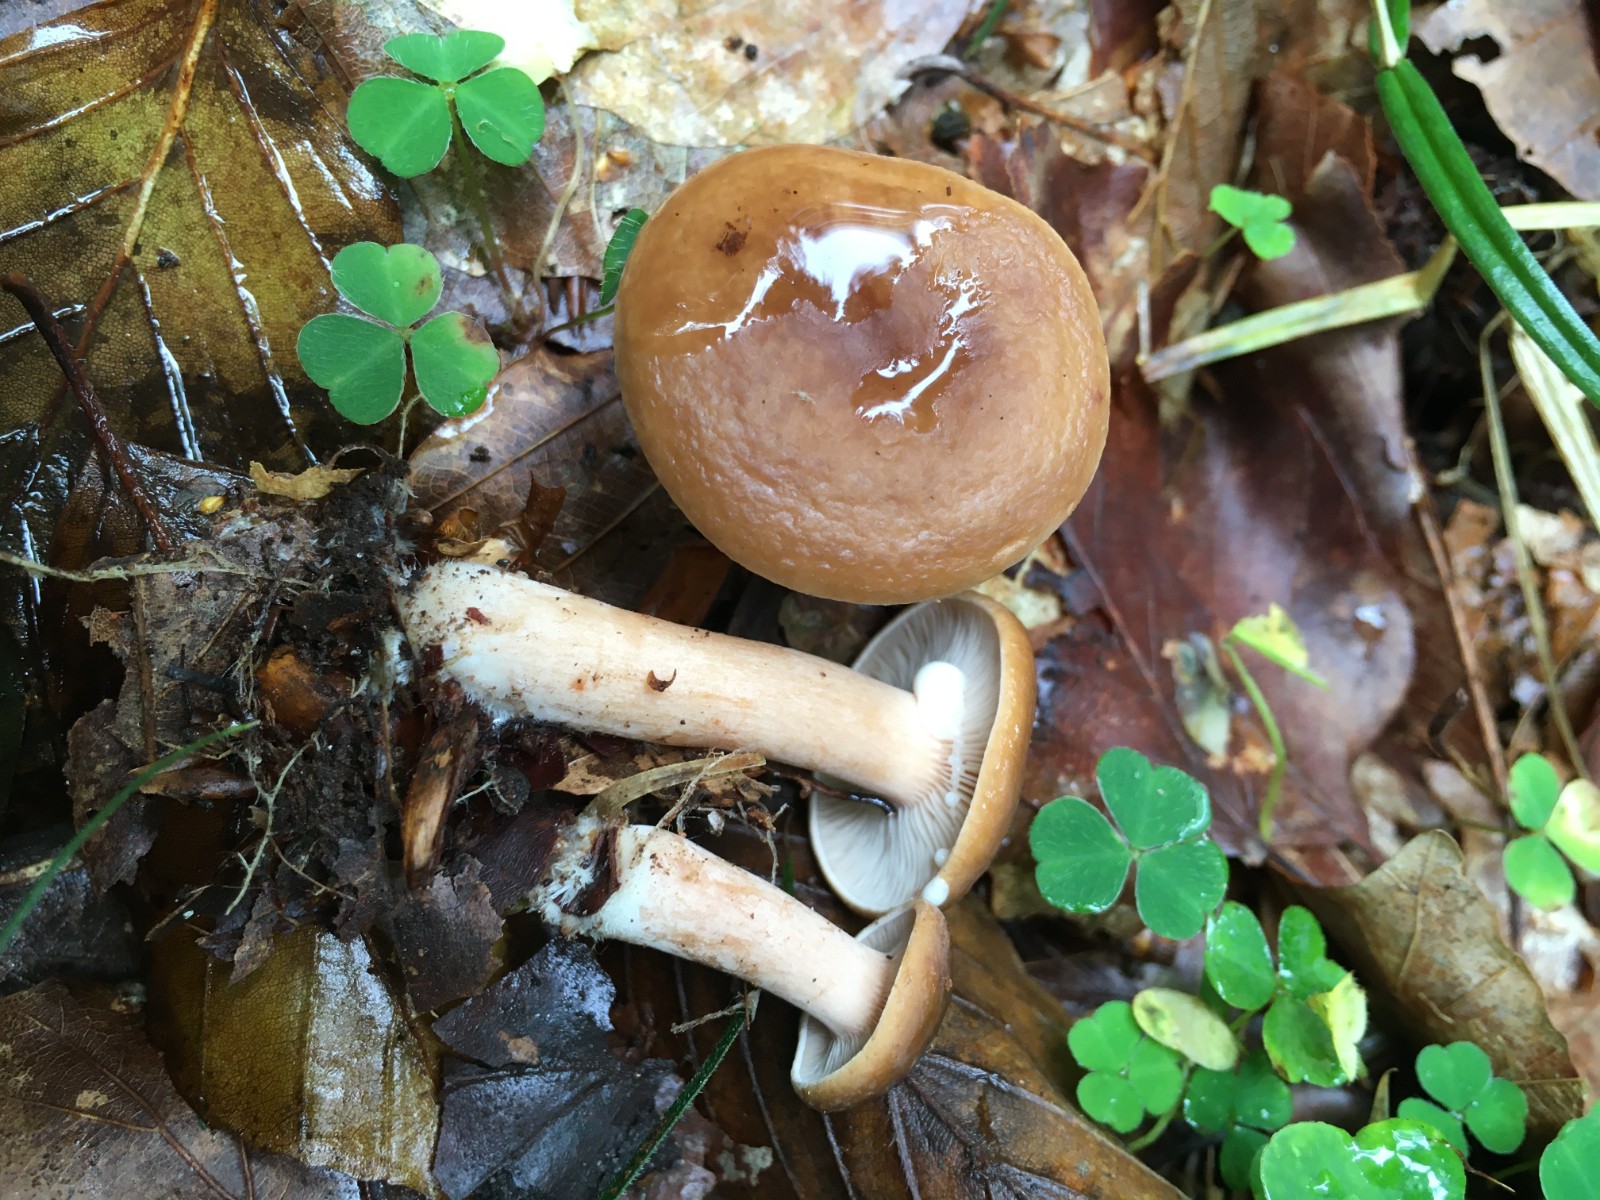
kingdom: Fungi
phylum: Basidiomycota
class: Agaricomycetes
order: Russulales
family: Russulaceae
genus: Lactarius
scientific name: Lactarius subdulcis
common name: sødlig mælkehat
